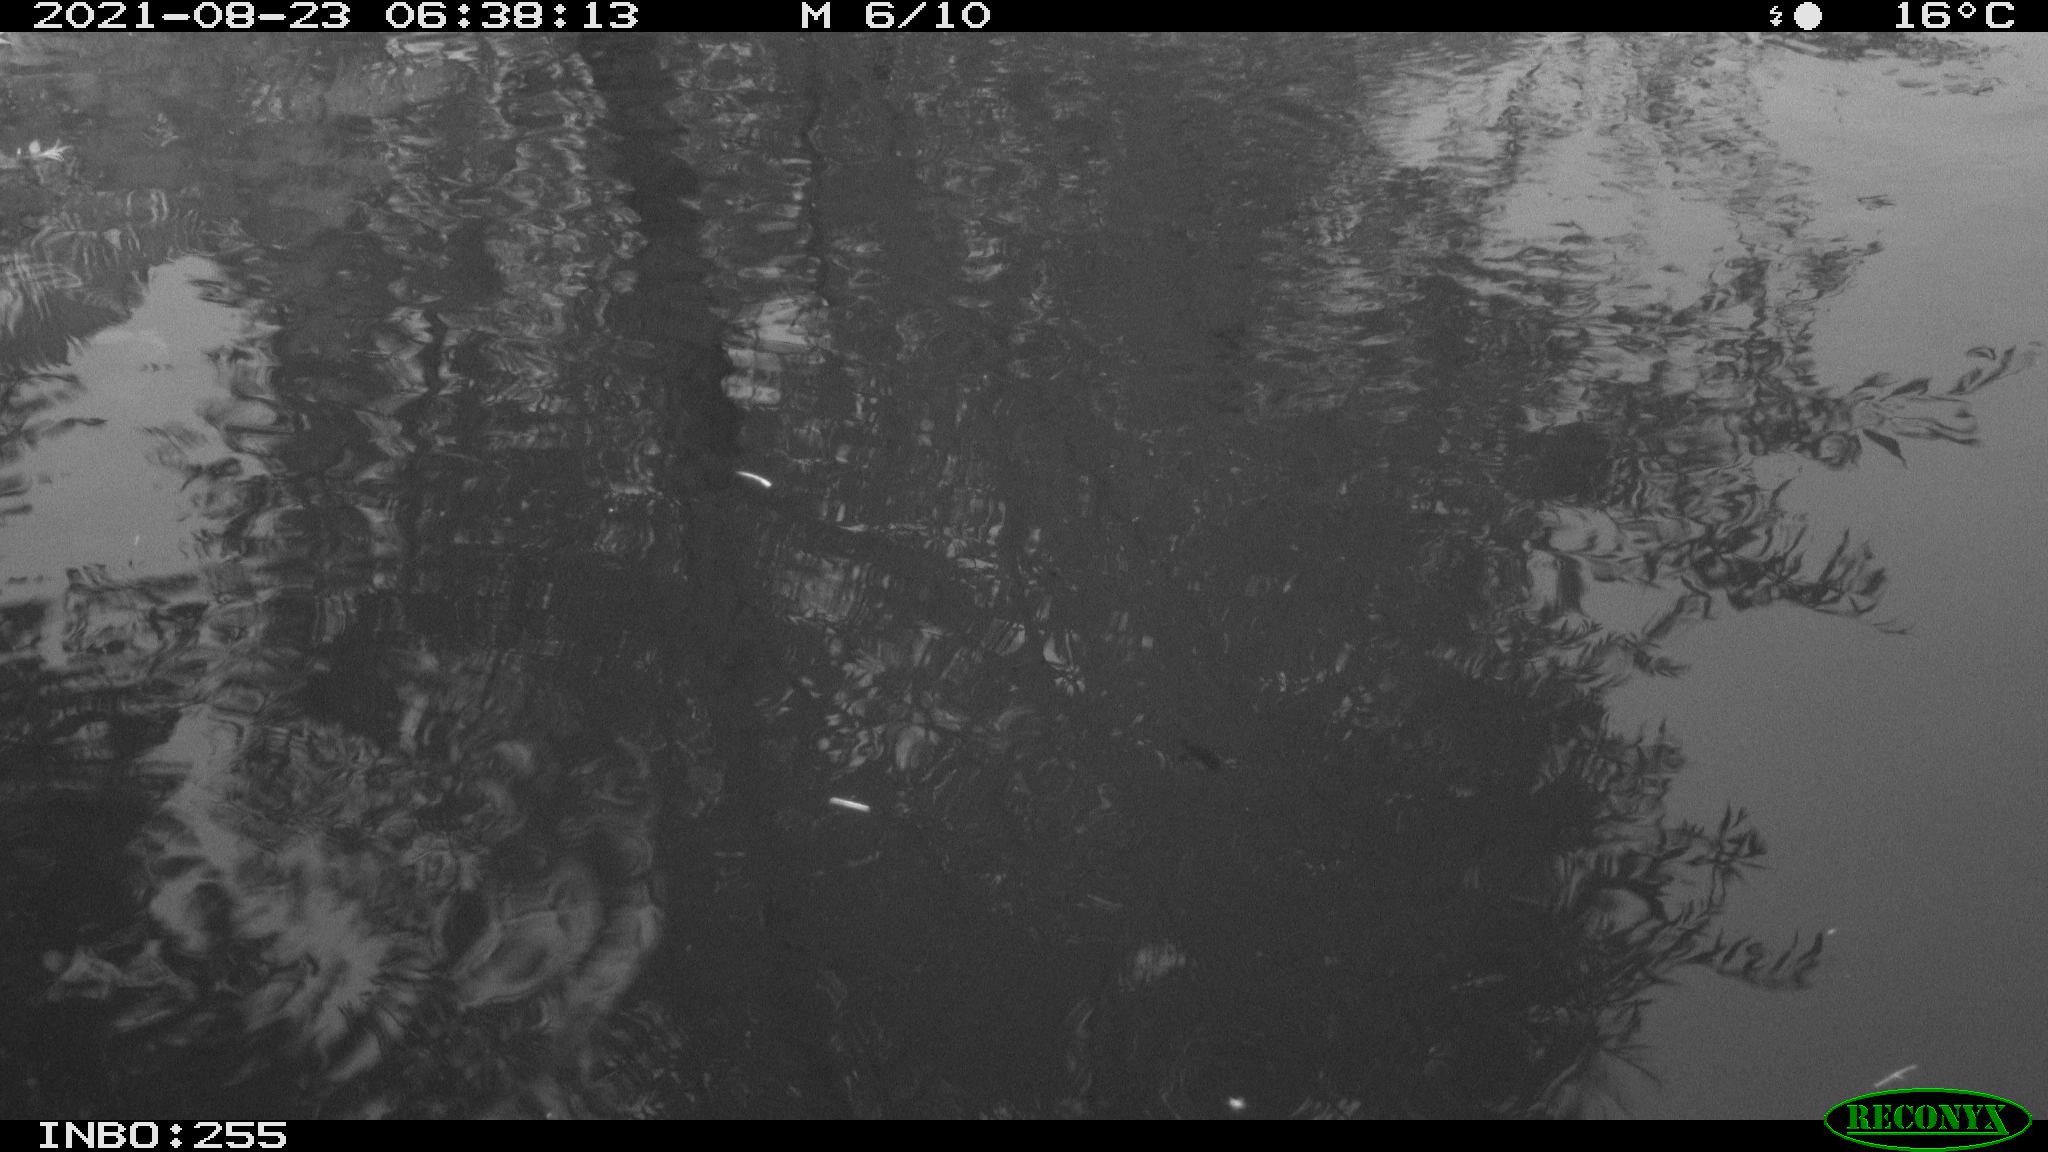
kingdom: Animalia
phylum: Chordata
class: Aves
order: Gruiformes
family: Rallidae
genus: Gallinula
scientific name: Gallinula chloropus
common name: Common moorhen
